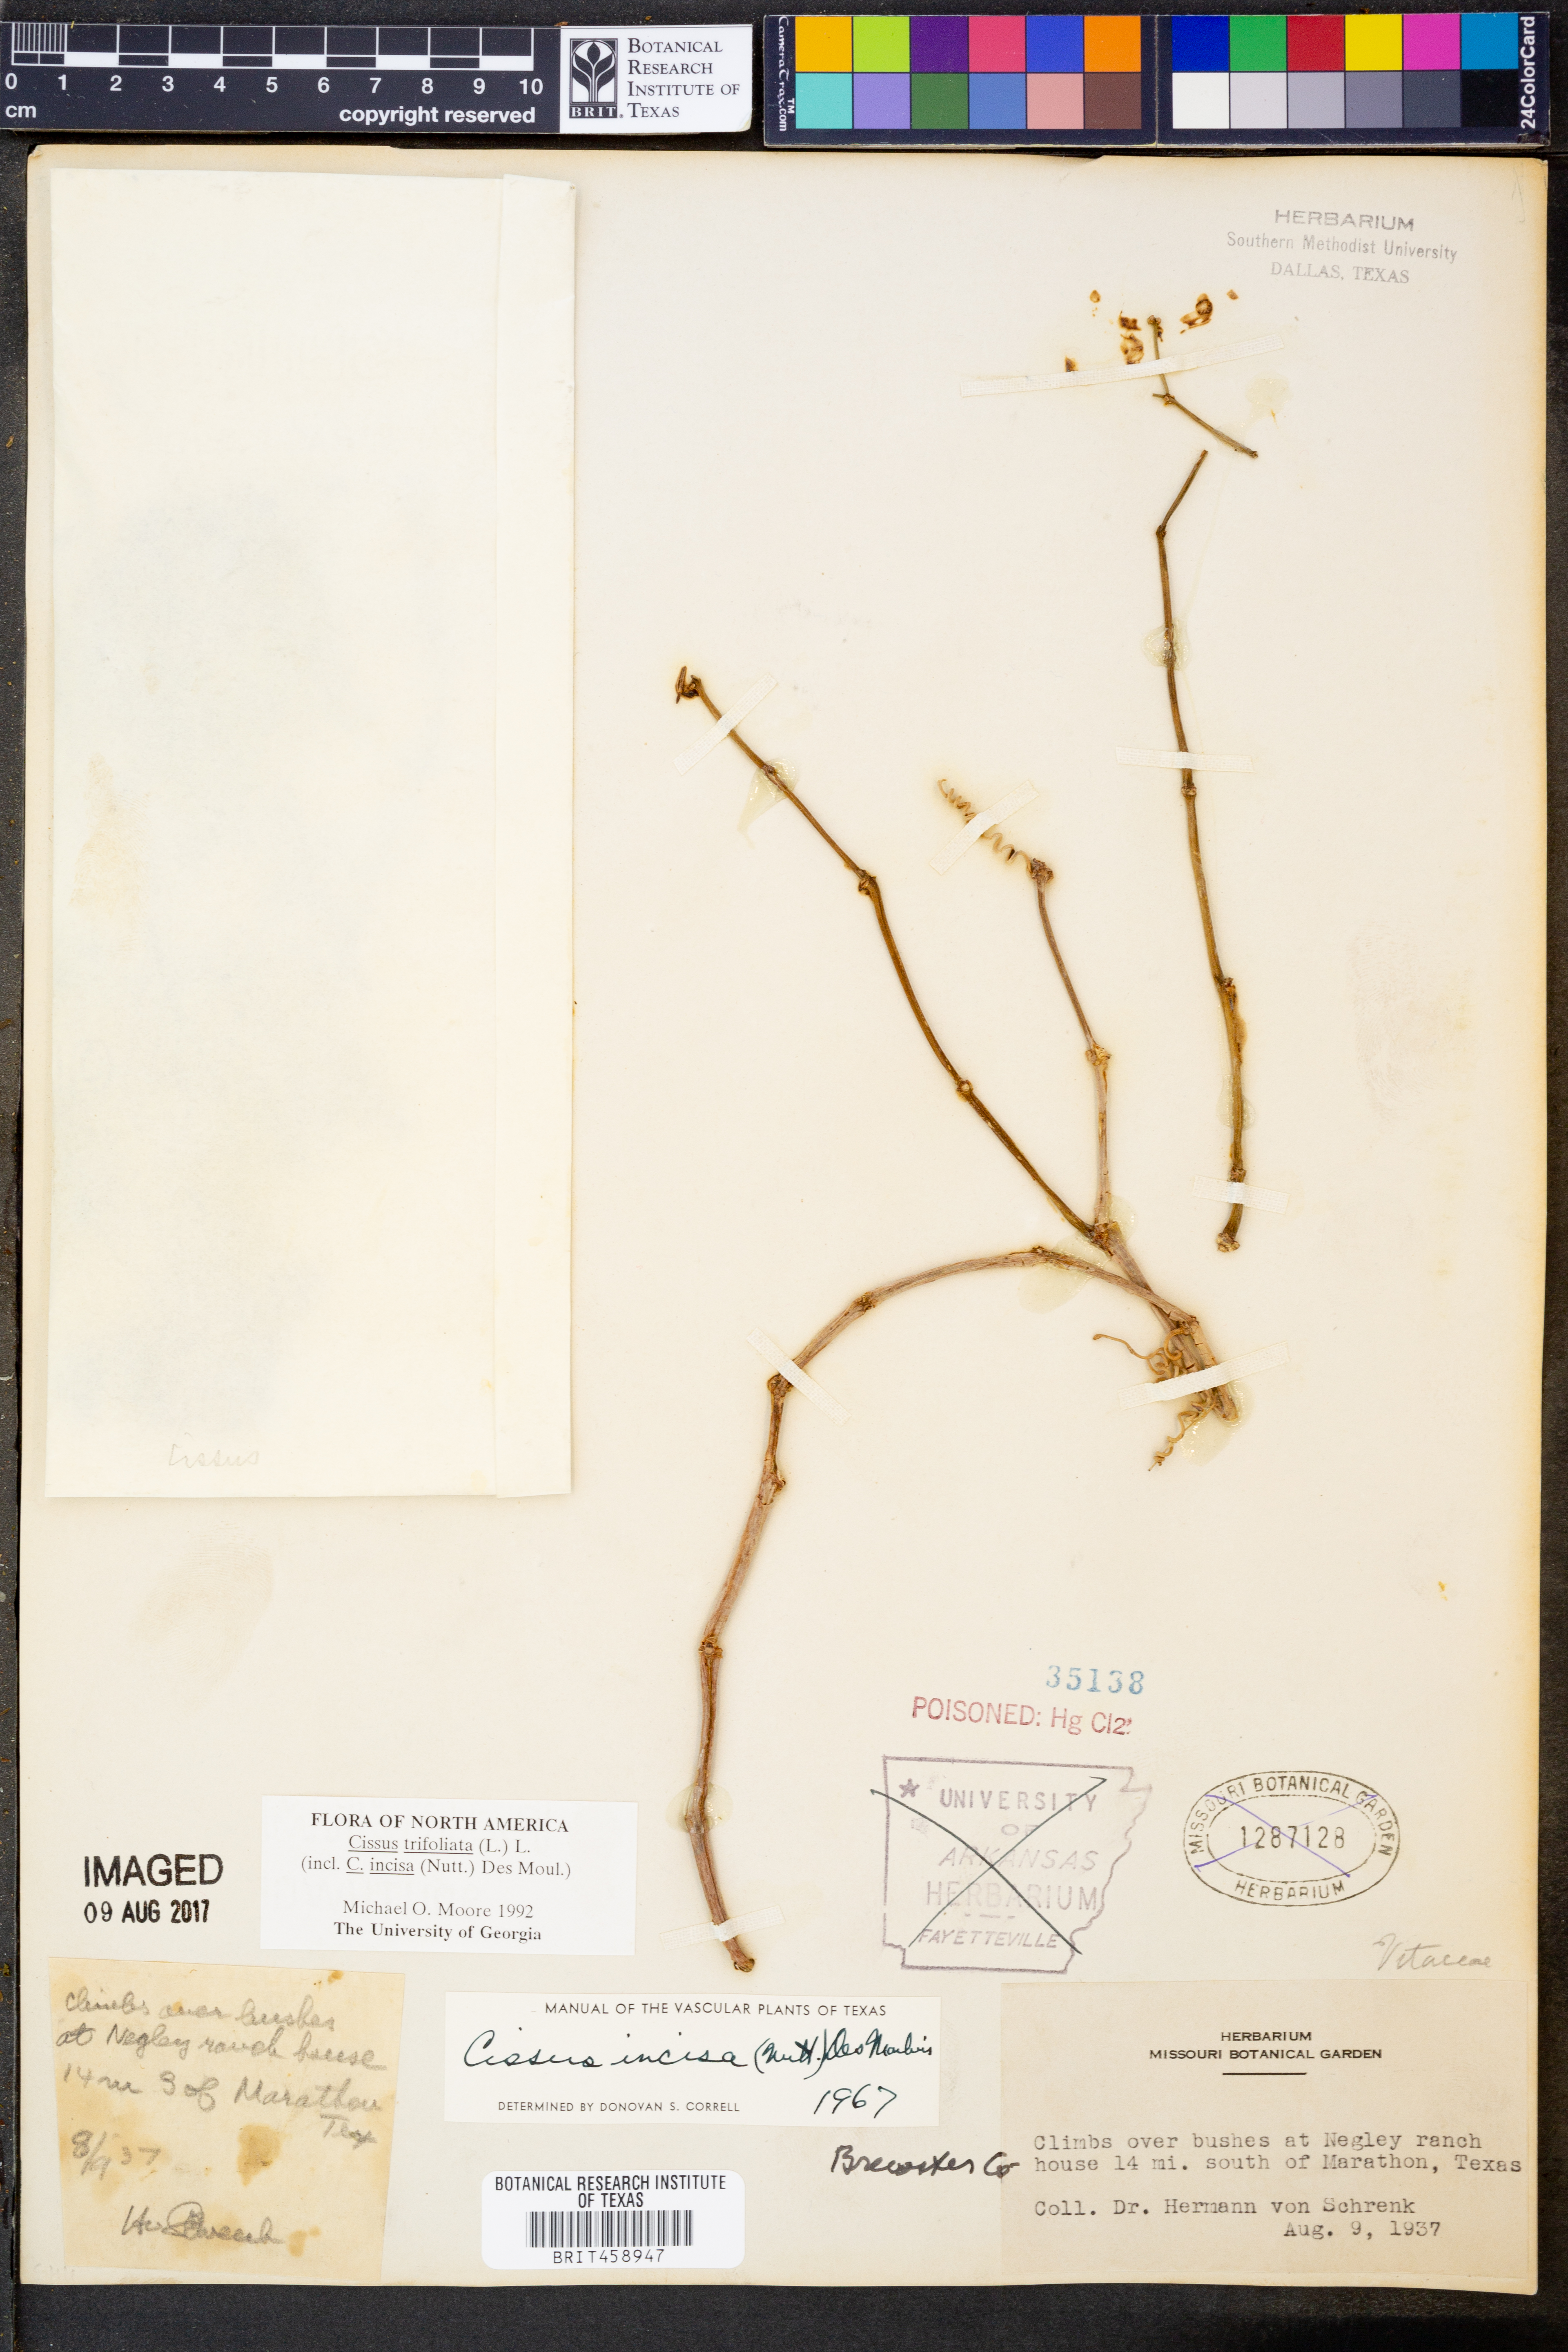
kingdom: Plantae
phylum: Tracheophyta
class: Magnoliopsida
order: Vitales
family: Vitaceae
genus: Cissus
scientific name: Cissus trifoliata
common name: Vine-sorrel
